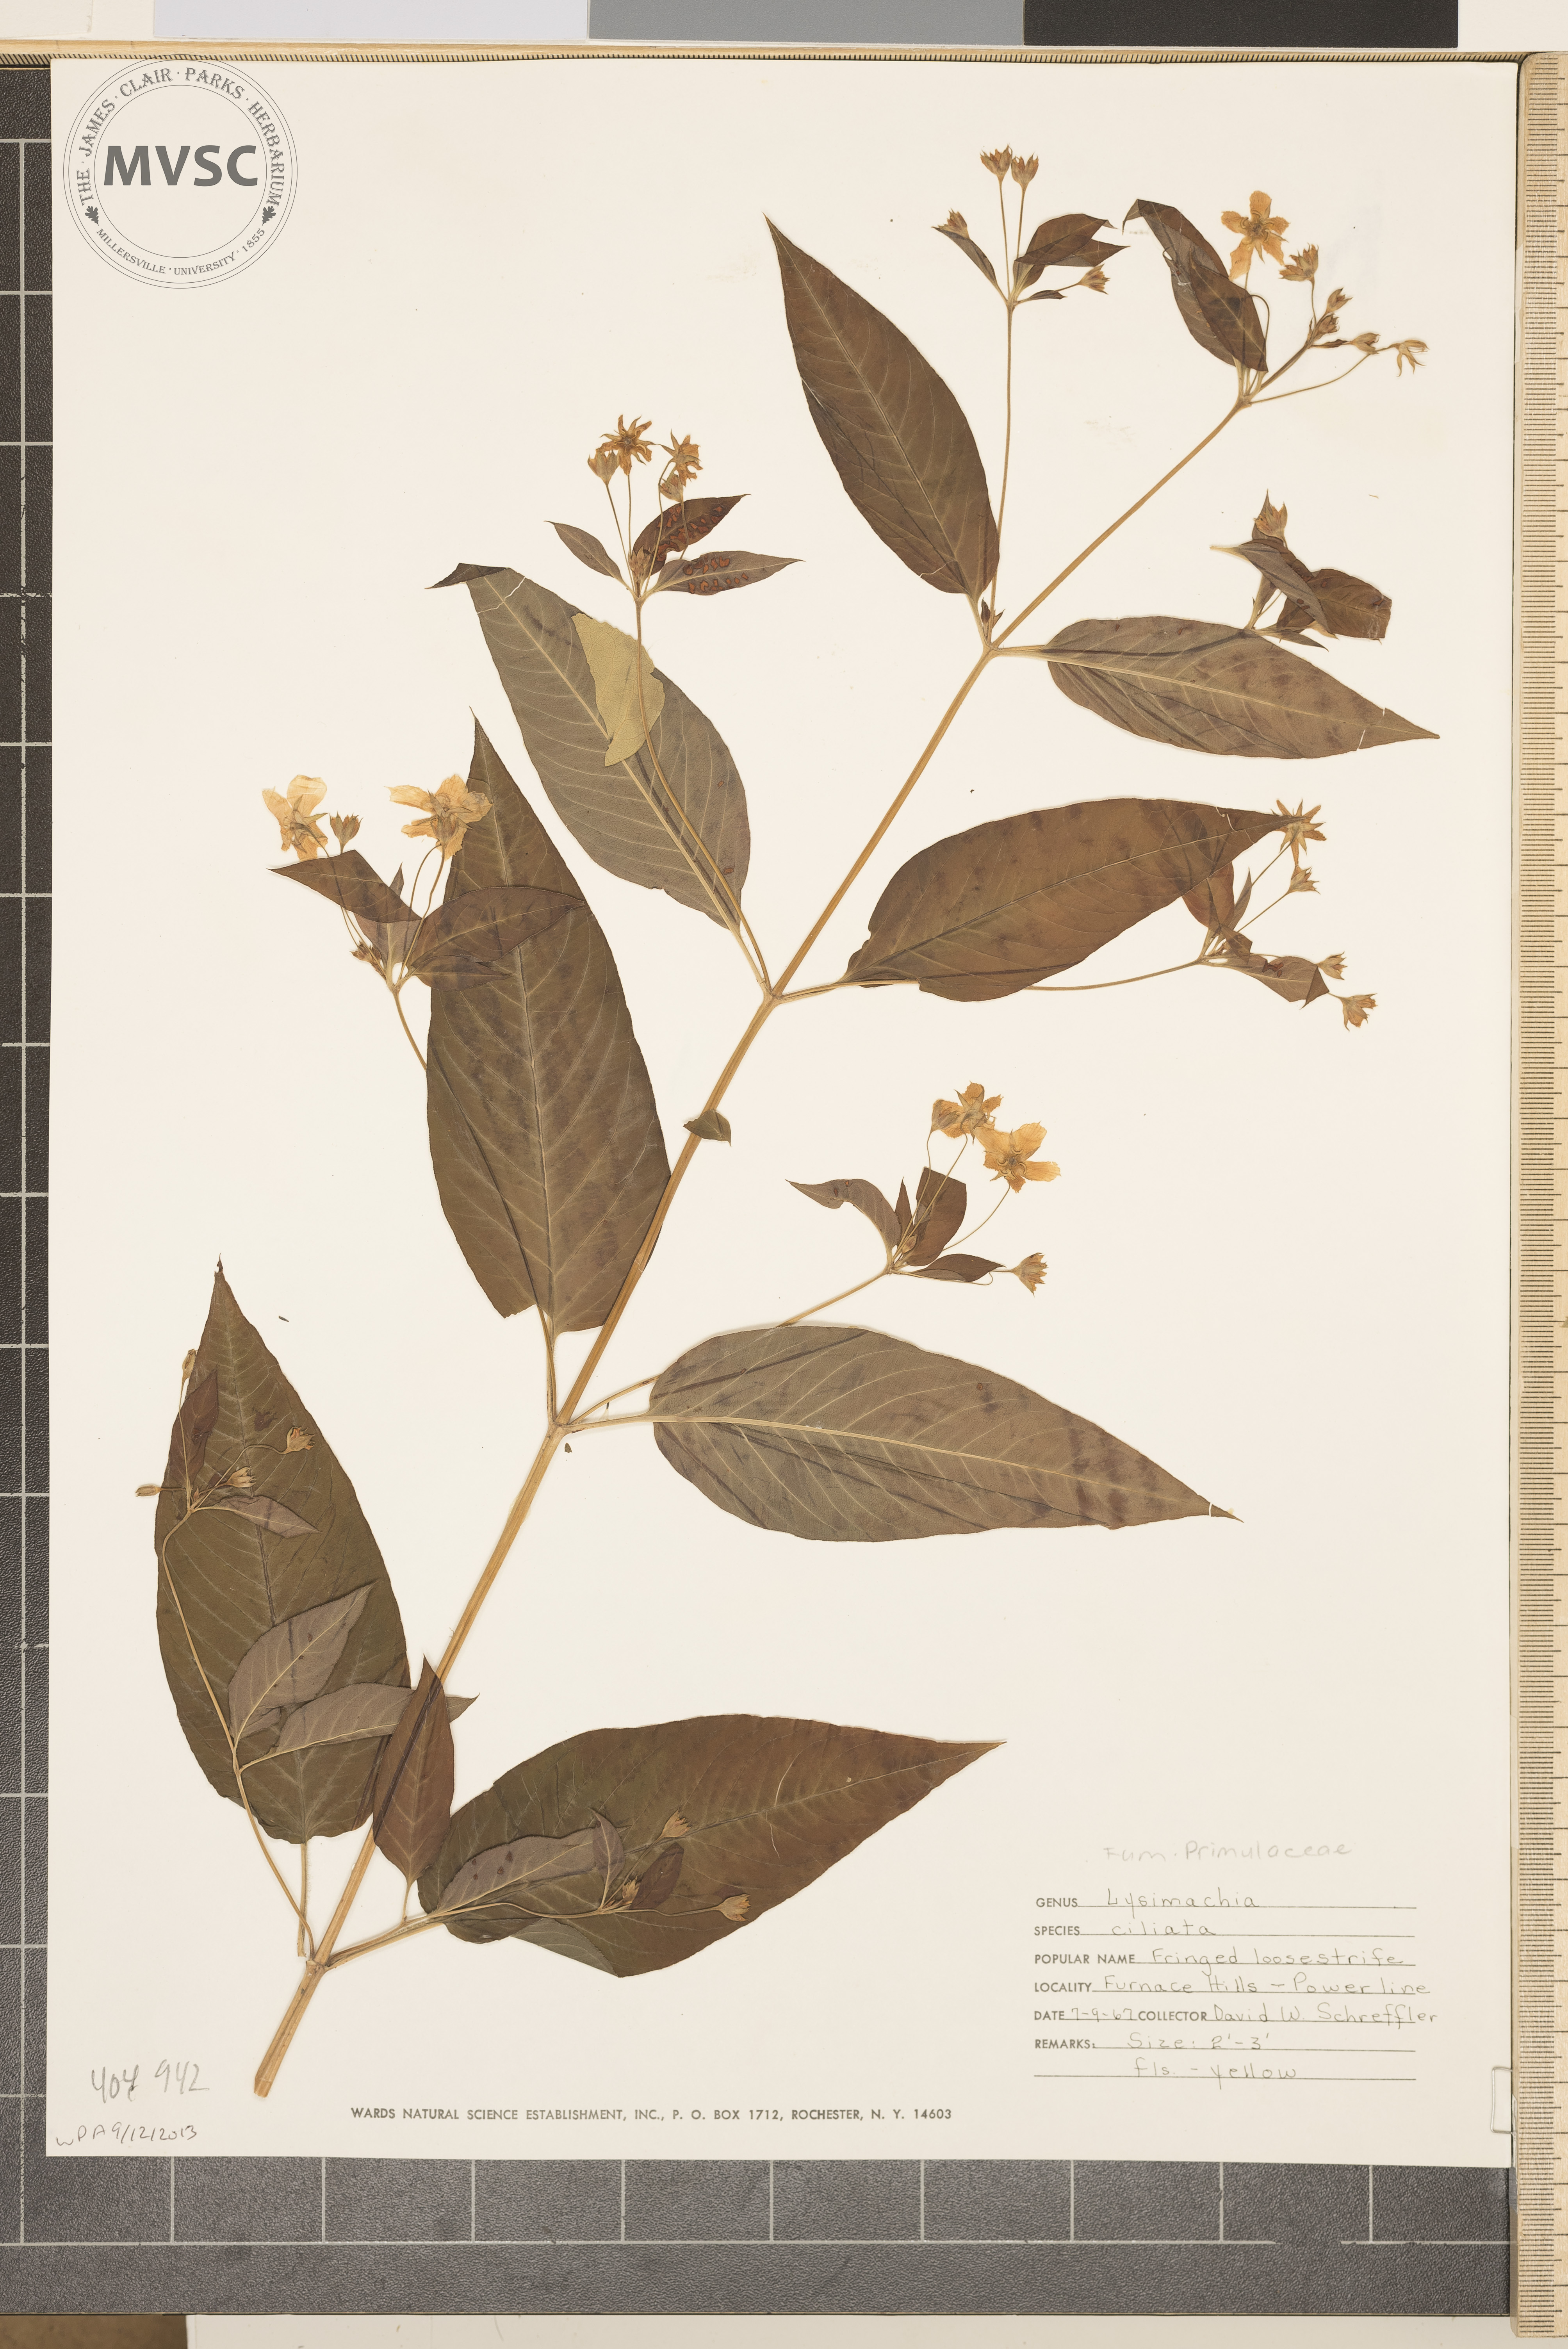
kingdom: Plantae
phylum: Tracheophyta
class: Magnoliopsida
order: Ericales
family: Primulaceae
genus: Lysimachia
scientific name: Lysimachia ciliata
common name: Fringed loosestrife
